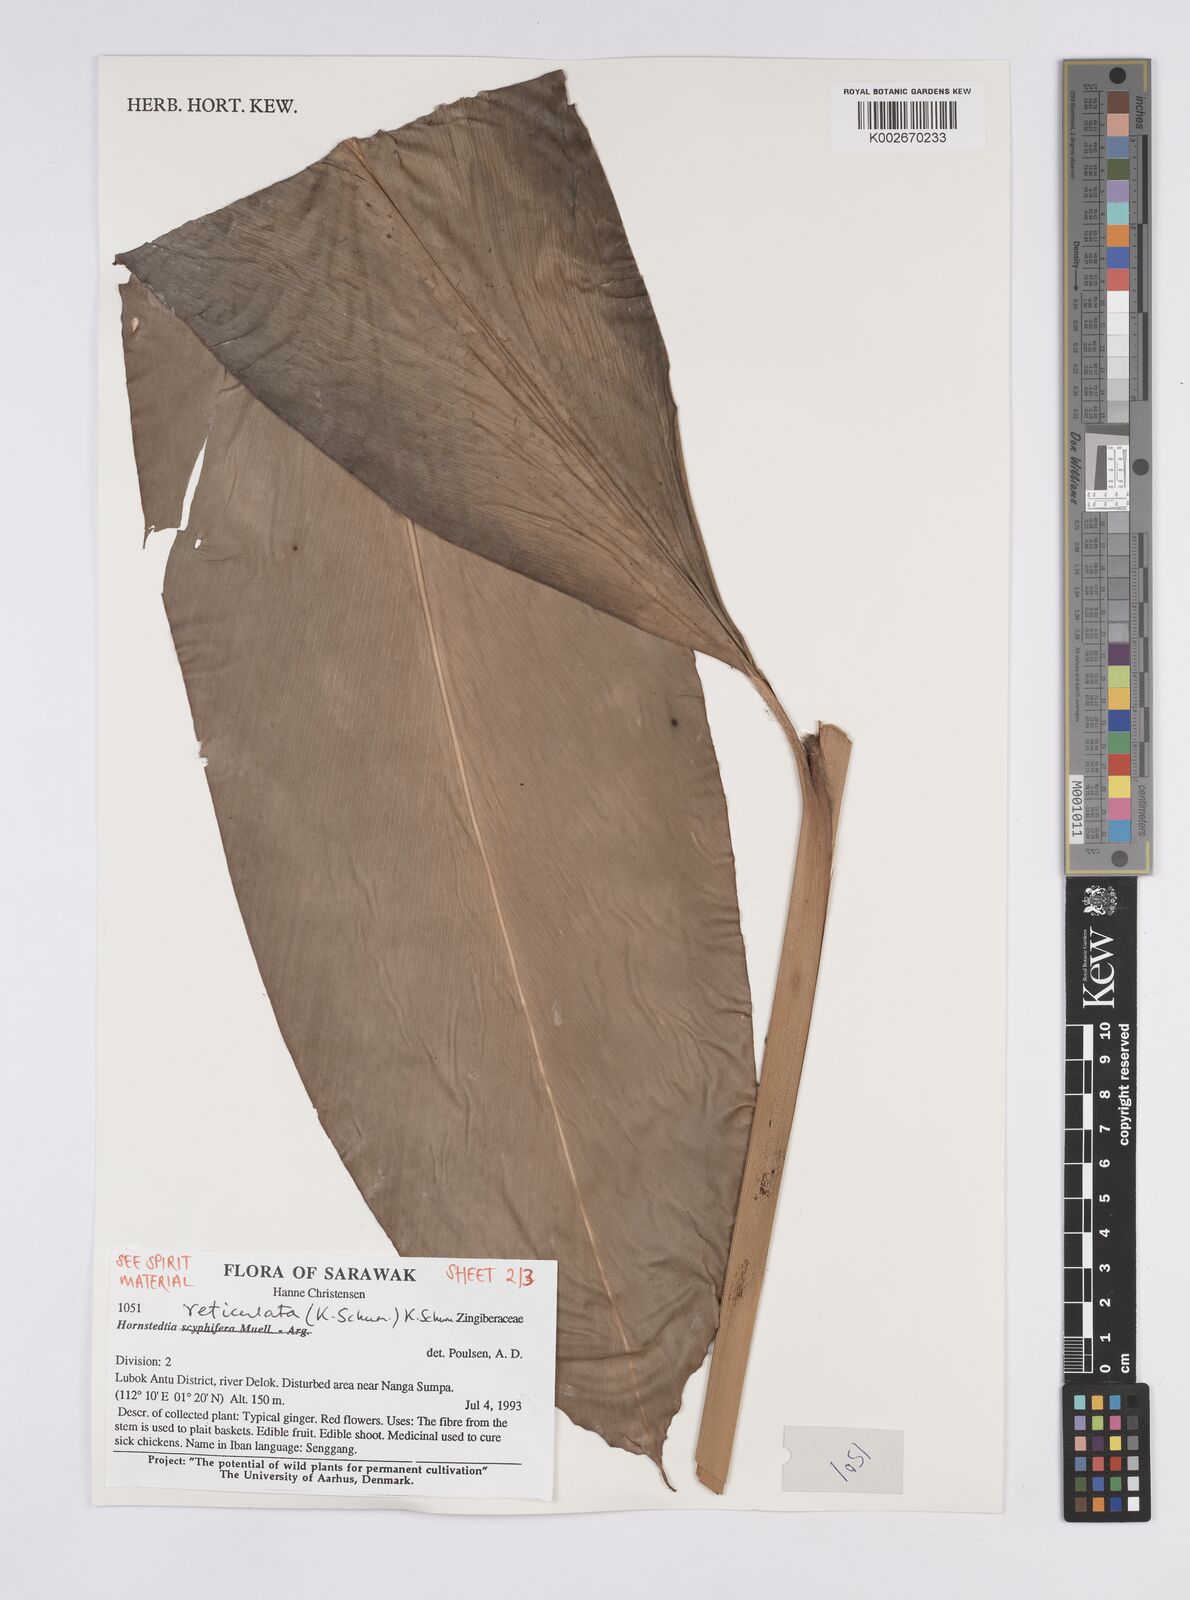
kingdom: Plantae
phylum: Tracheophyta
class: Liliopsida
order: Zingiberales
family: Zingiberaceae
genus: Hornstedtia
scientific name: Hornstedtia reticulata
